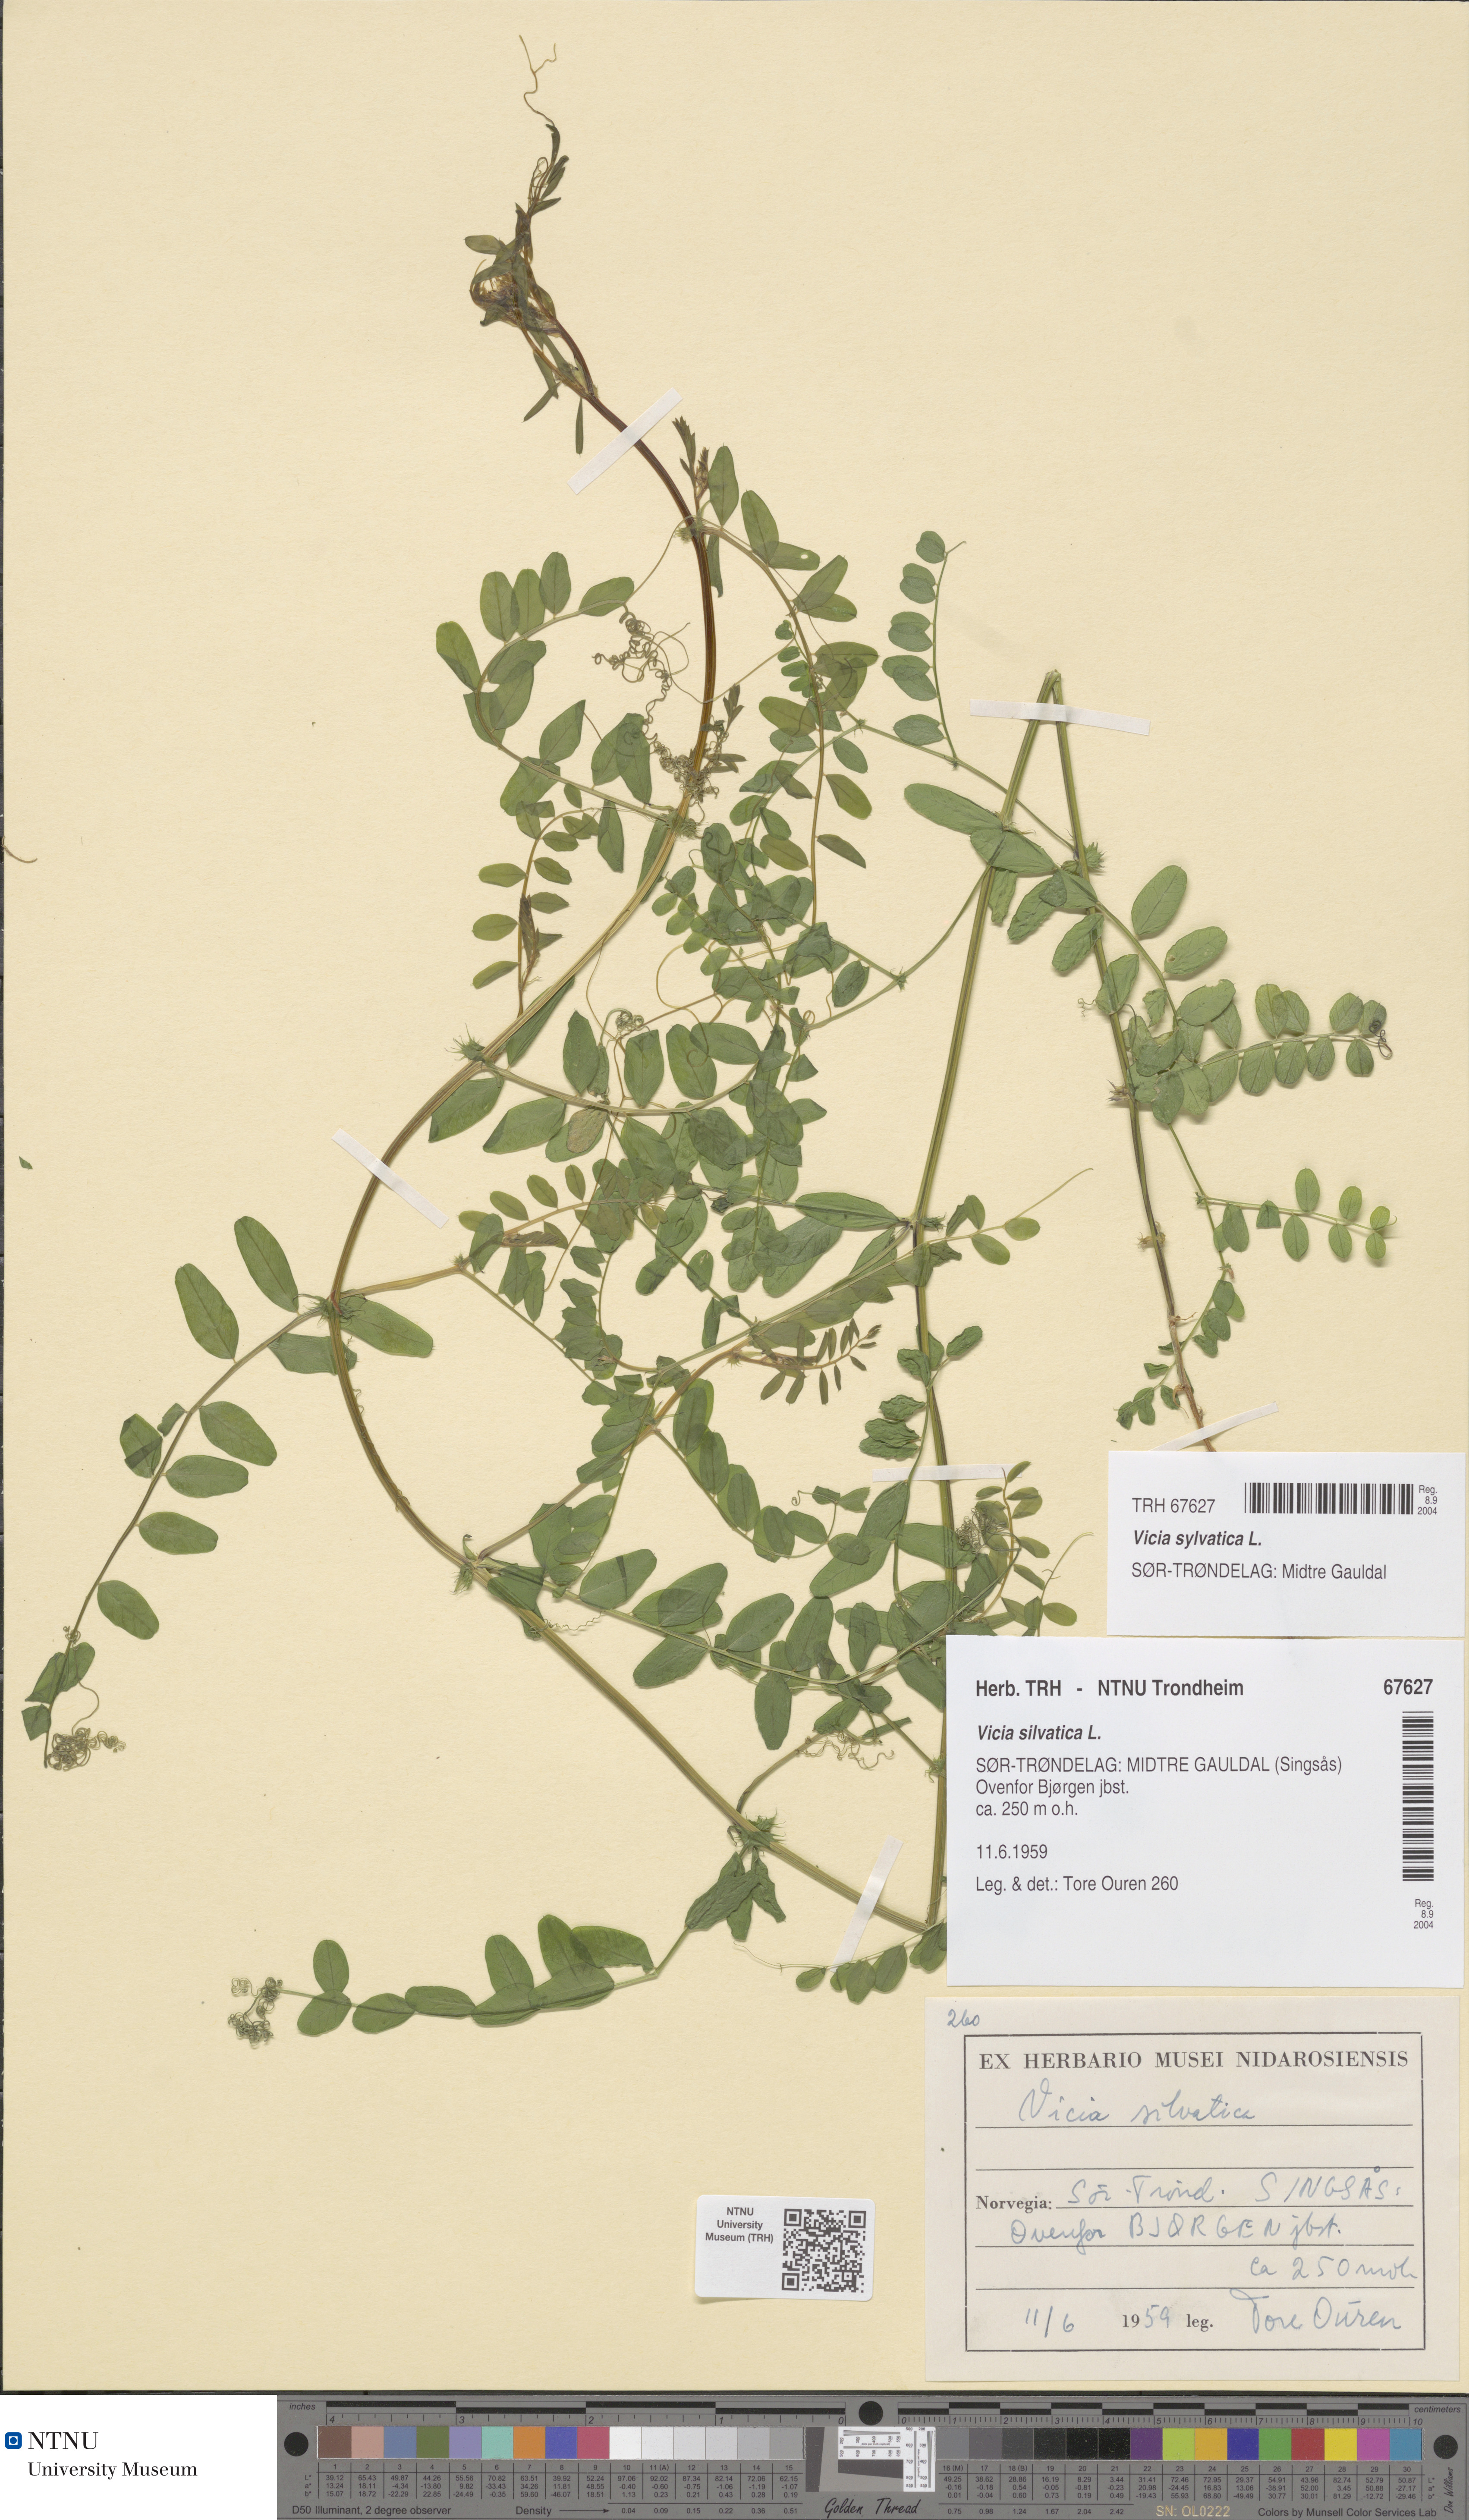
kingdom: Plantae
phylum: Tracheophyta
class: Magnoliopsida
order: Fabales
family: Fabaceae
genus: Vicia
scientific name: Vicia sylvatica
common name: Wood vetch
